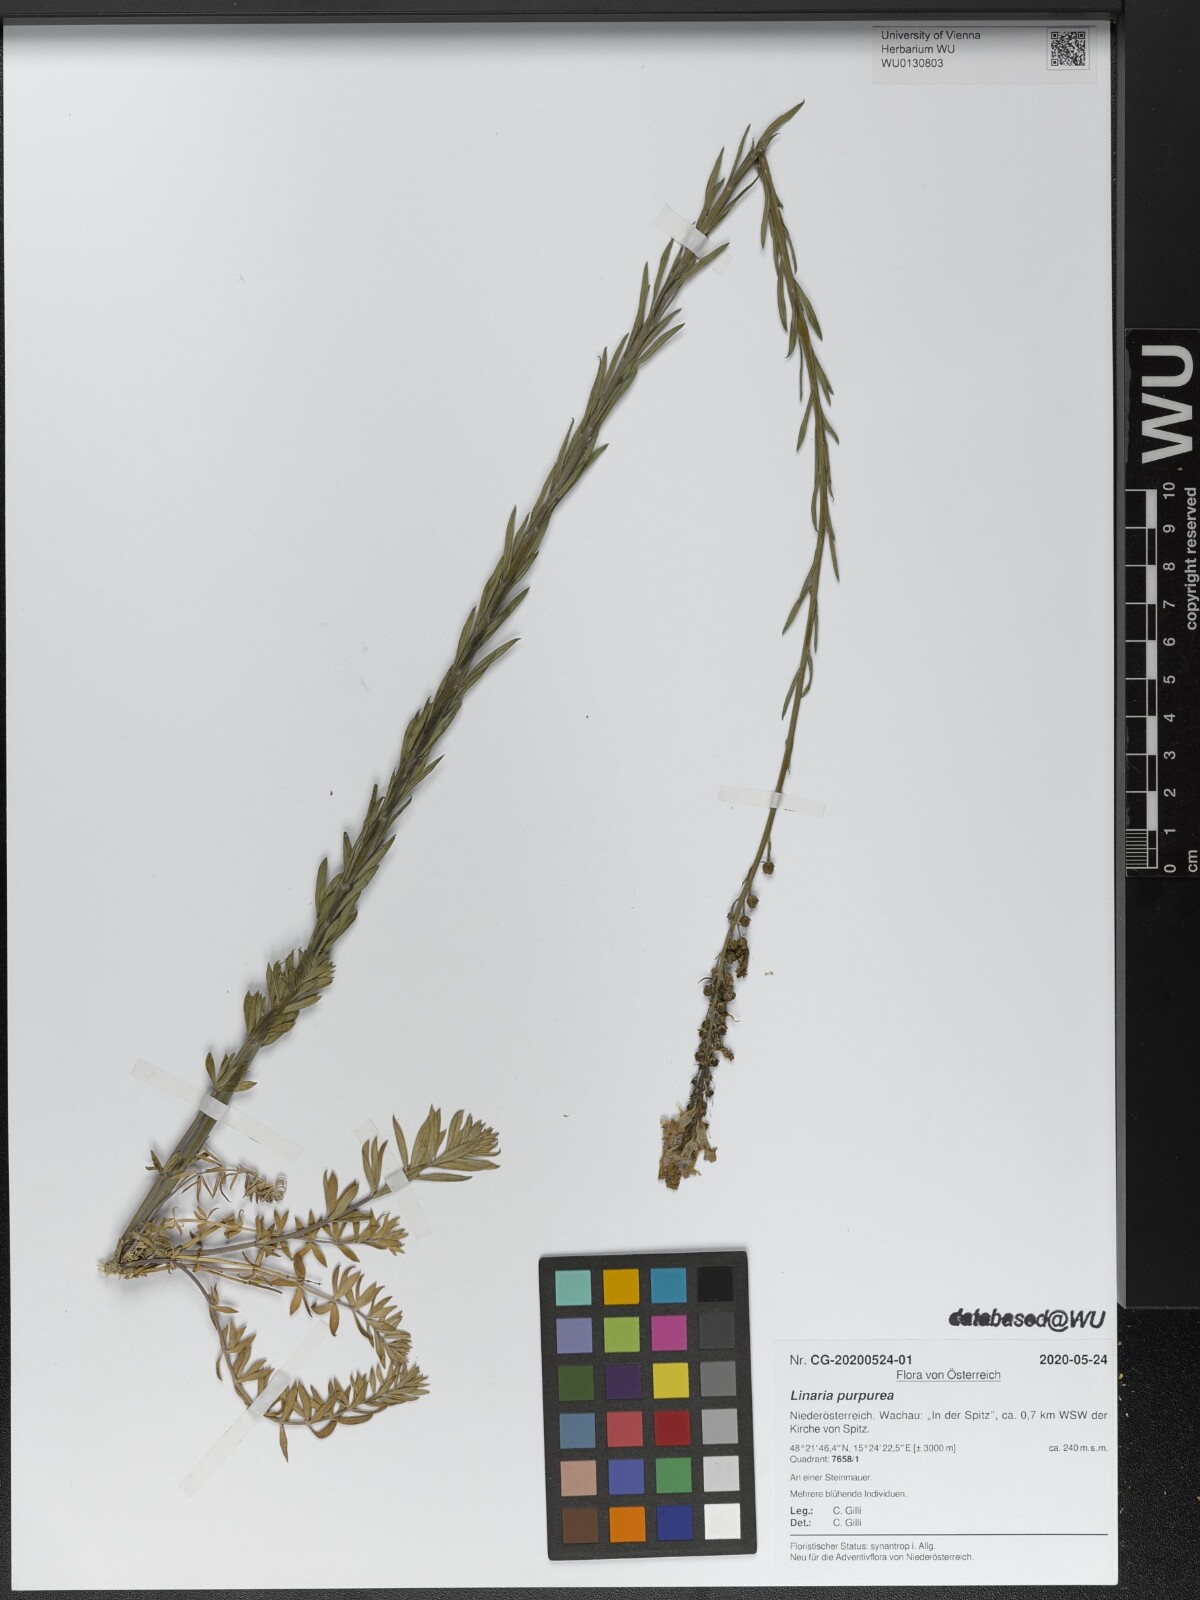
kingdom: Plantae
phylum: Tracheophyta
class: Magnoliopsida
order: Lamiales
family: Plantaginaceae
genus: Linaria
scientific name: Linaria purpurea
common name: Purple toadflax
